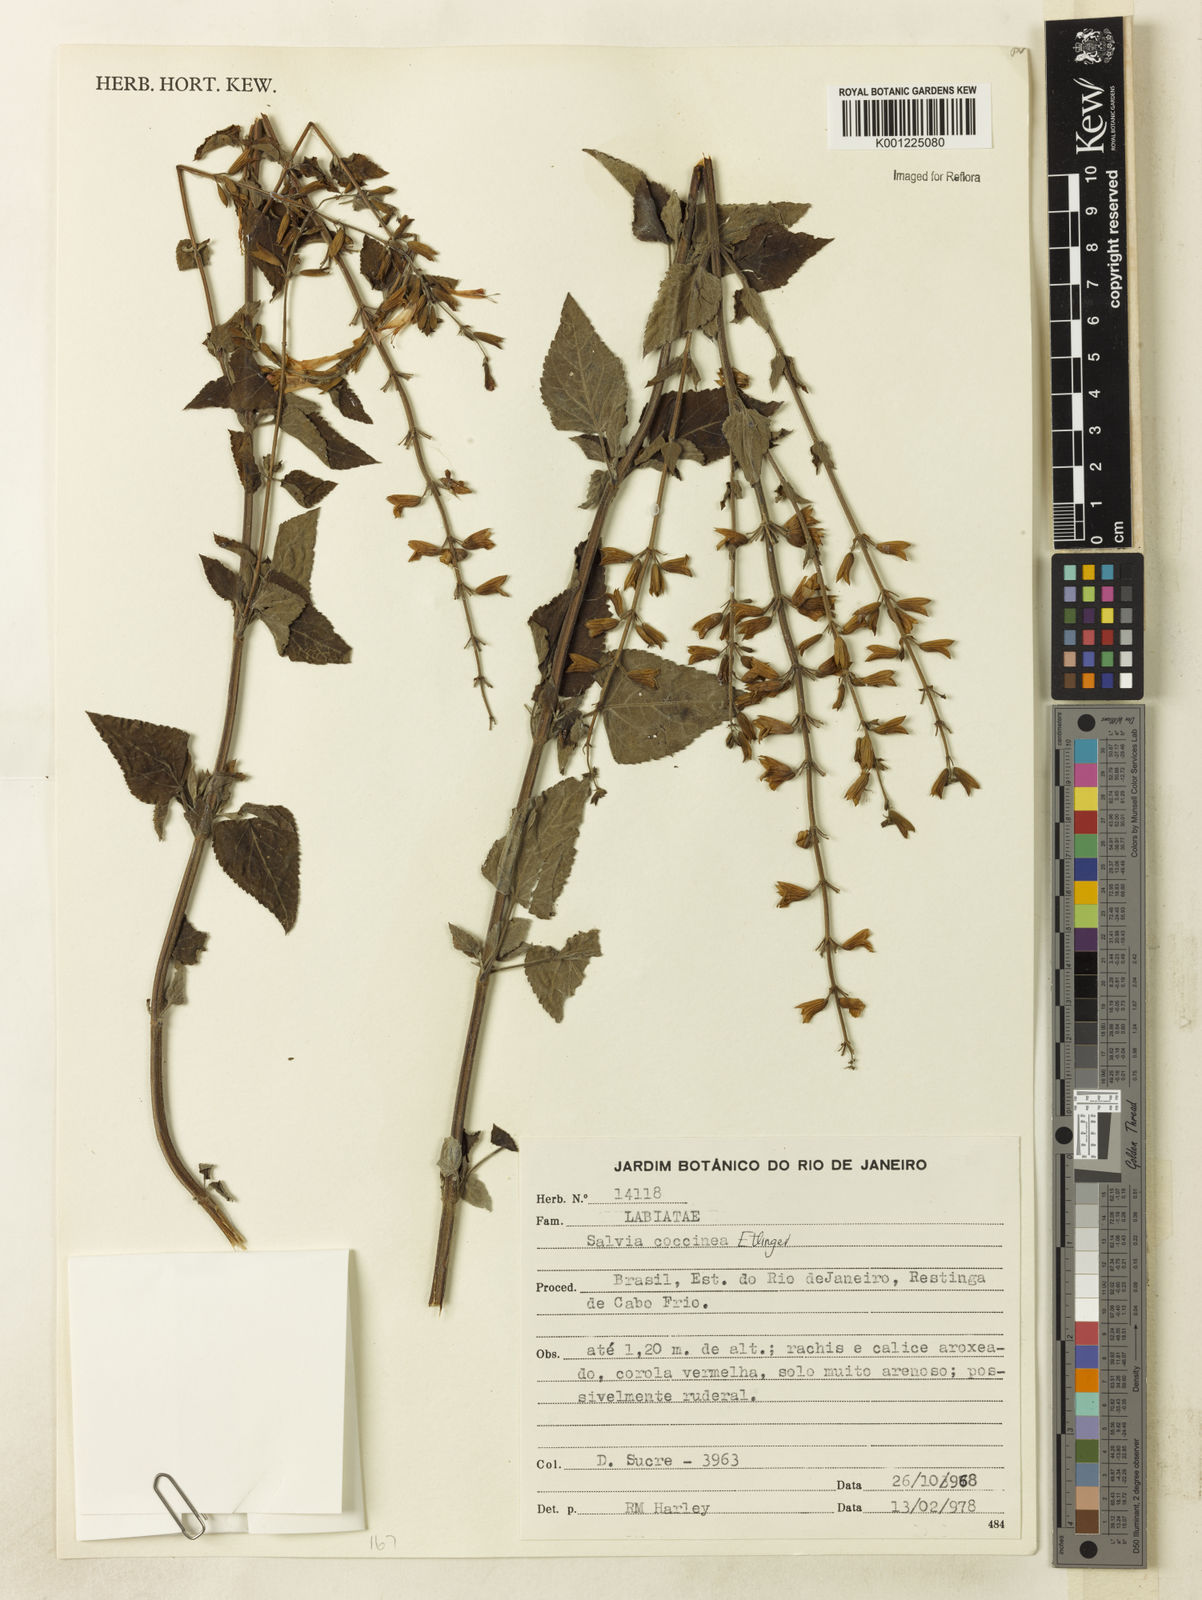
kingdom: Plantae
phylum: Tracheophyta
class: Magnoliopsida
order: Lamiales
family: Lamiaceae
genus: Salvia
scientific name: Salvia coccinea
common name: Blood sage
